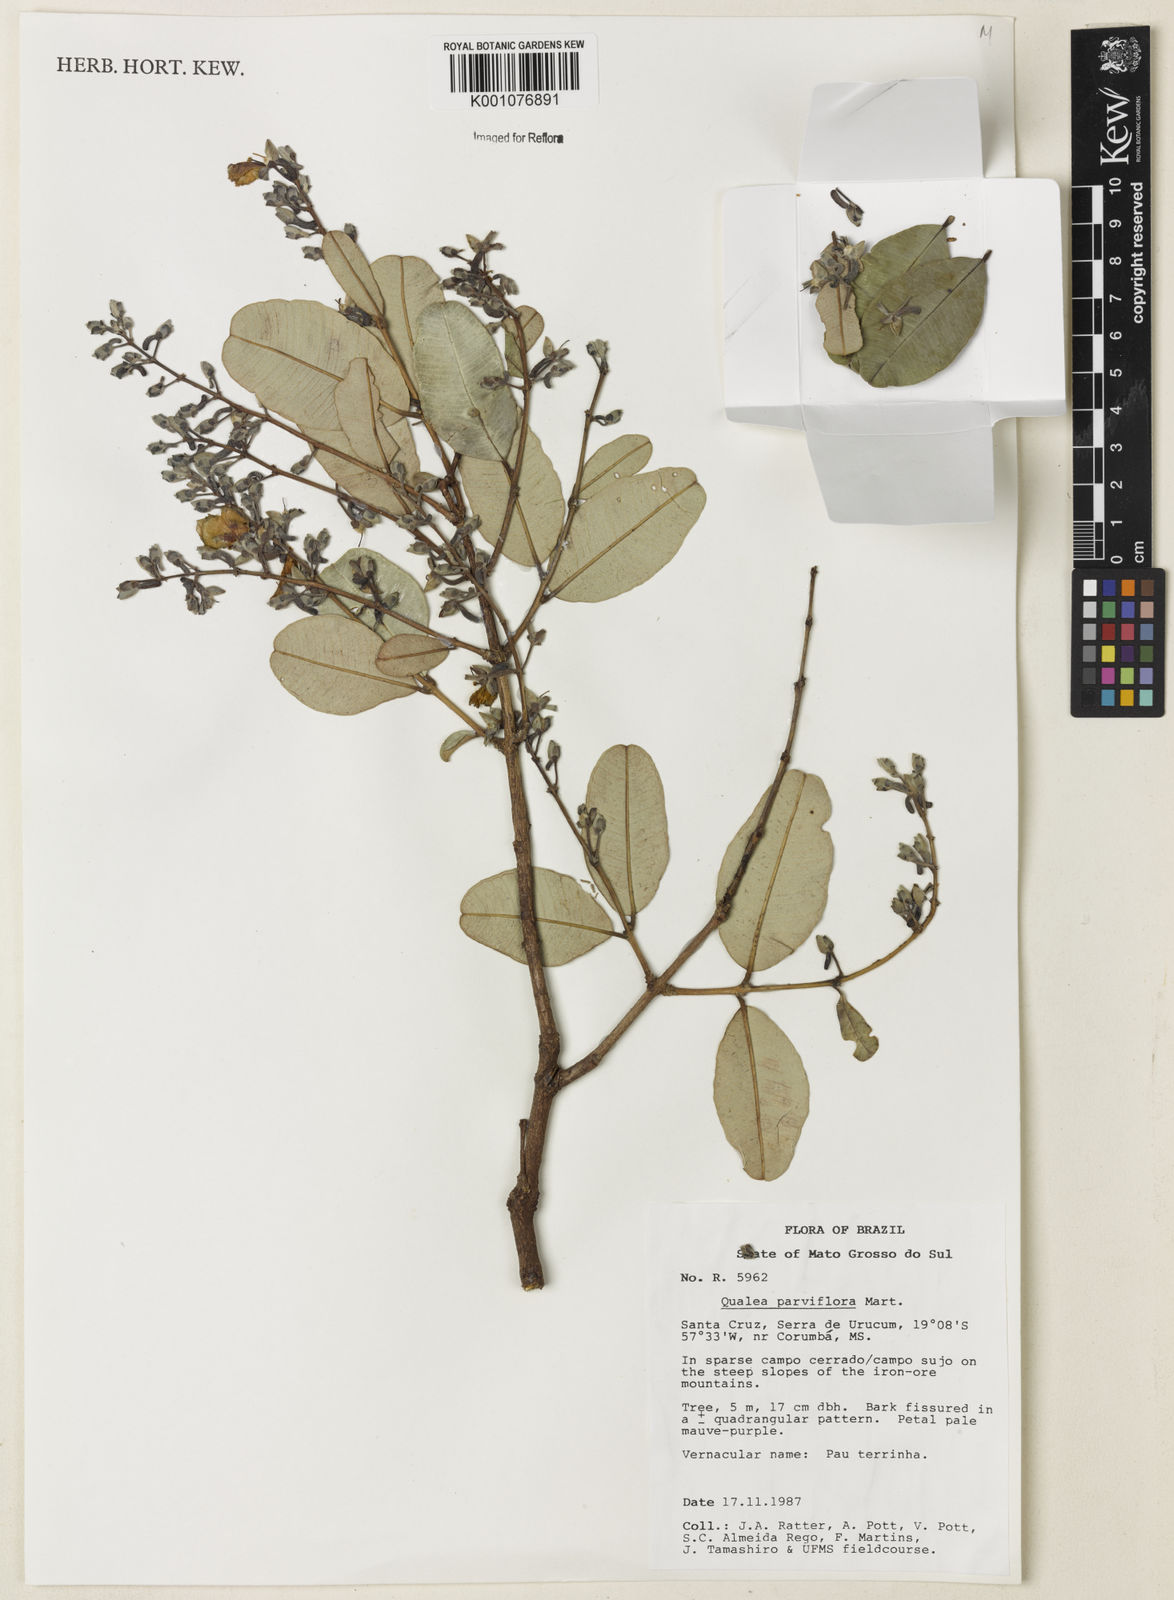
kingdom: Plantae
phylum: Tracheophyta
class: Magnoliopsida
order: Myrtales
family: Vochysiaceae
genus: Qualea
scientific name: Qualea parviflora
